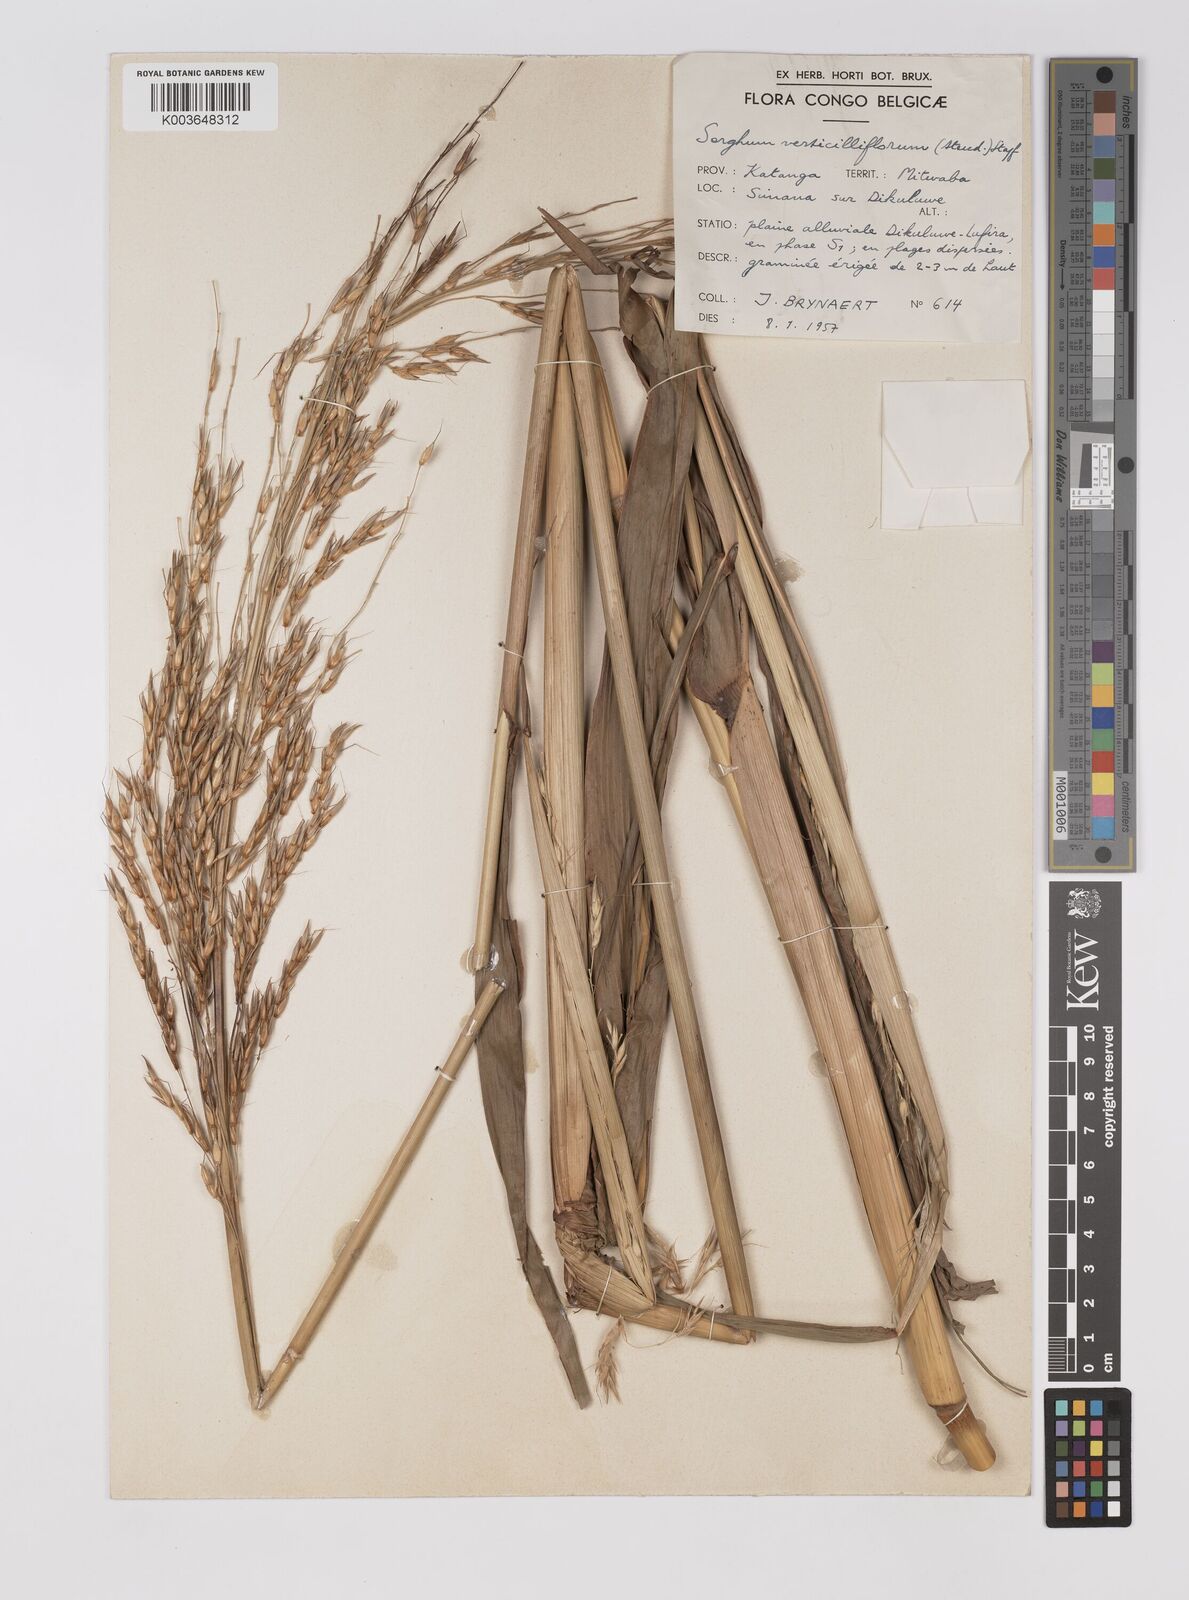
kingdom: Plantae
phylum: Tracheophyta
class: Liliopsida
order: Poales
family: Poaceae
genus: Sorghum
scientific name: Sorghum arundinaceum
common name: Sorghum
